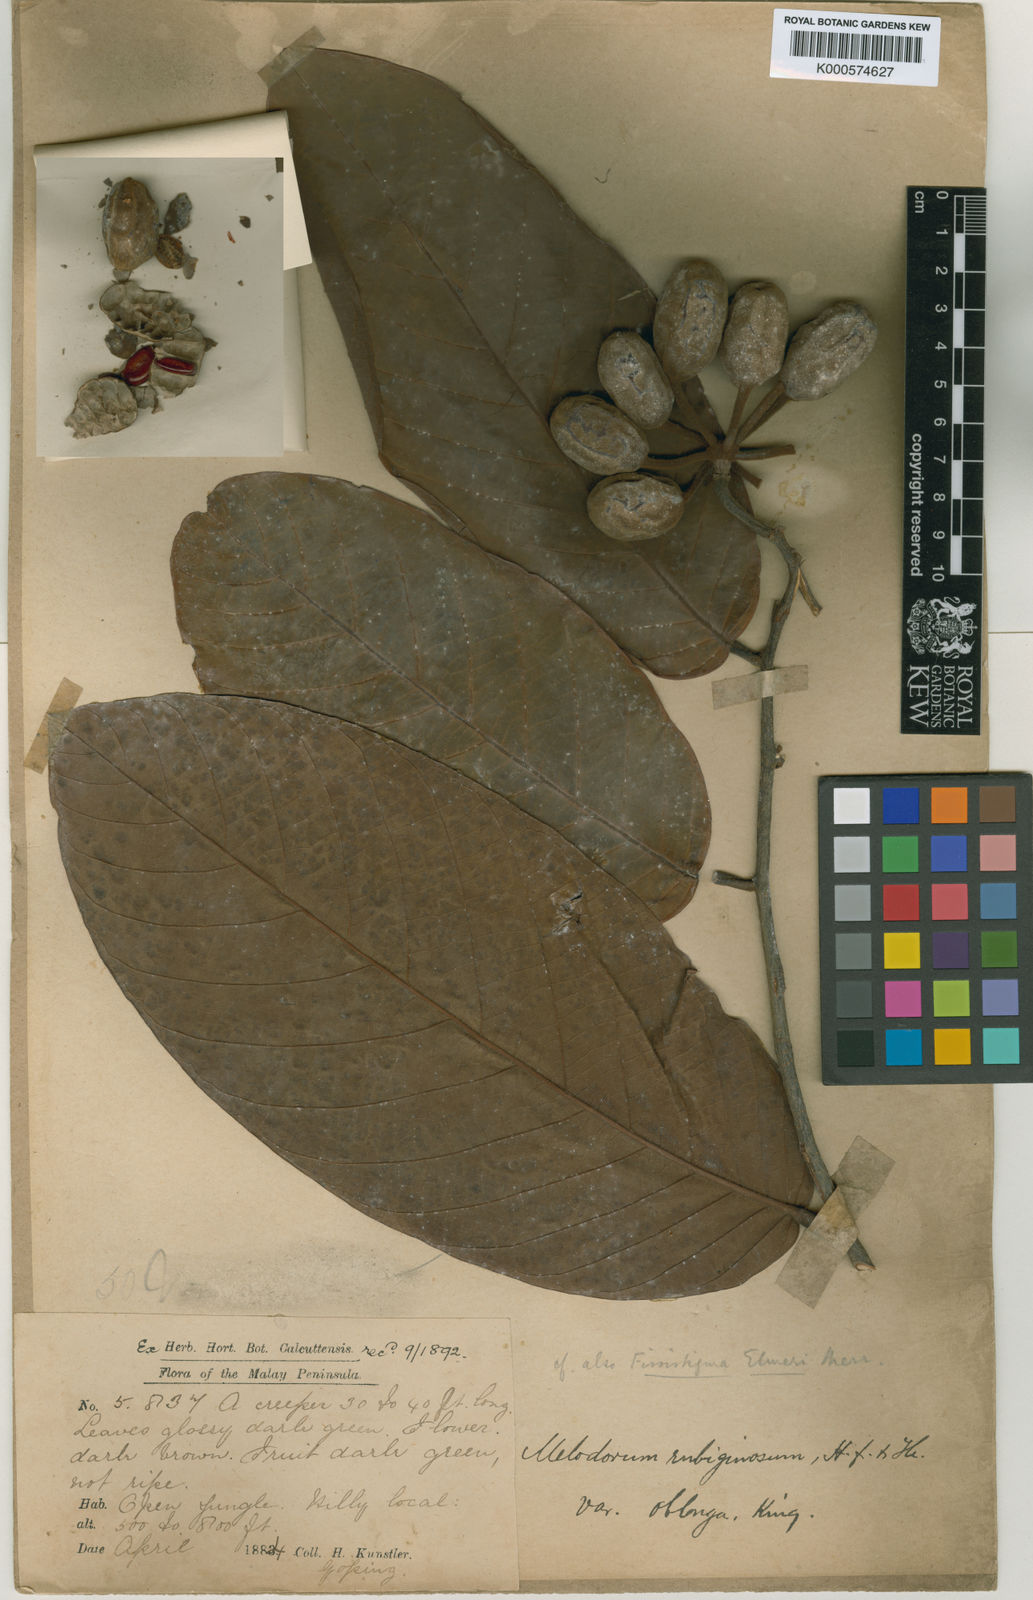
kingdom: Plantae
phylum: Tracheophyta
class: Magnoliopsida
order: Magnoliales
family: Annonaceae
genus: Fissistigma
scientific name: Fissistigma rubiginosum
